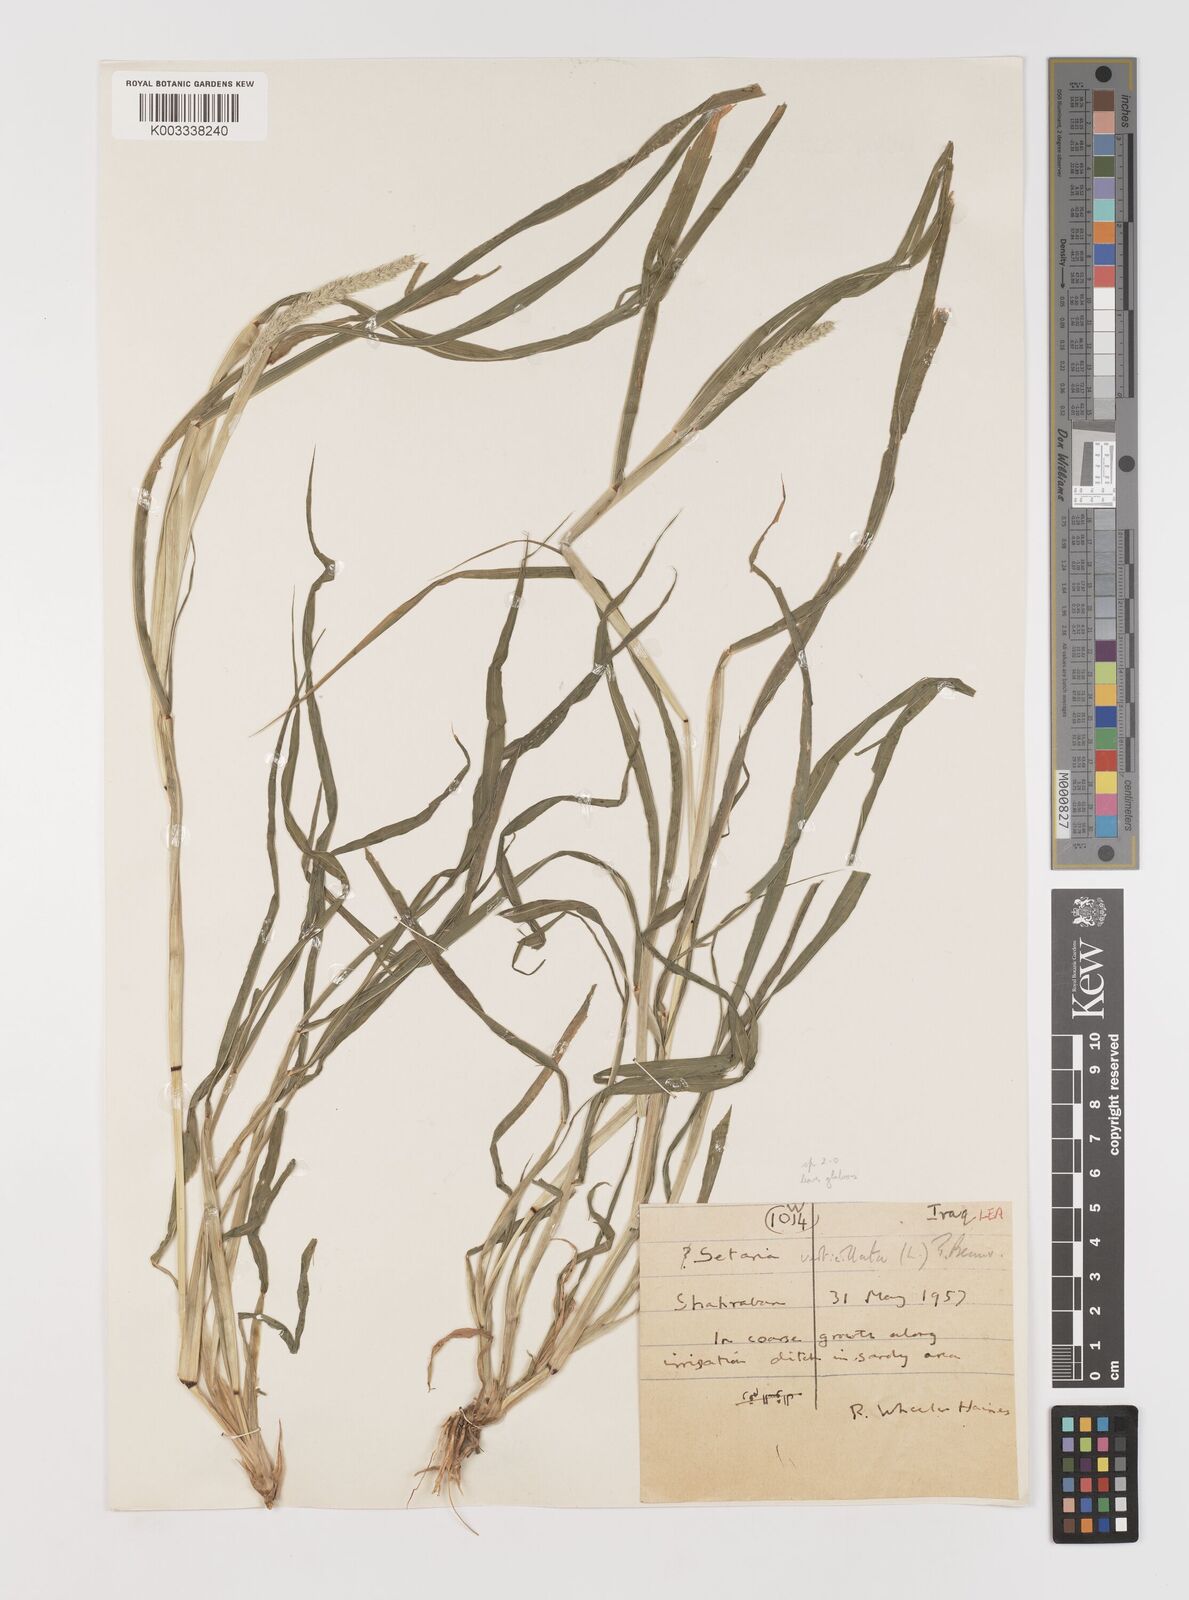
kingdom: Plantae
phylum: Tracheophyta
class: Liliopsida
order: Poales
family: Poaceae
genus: Setaria
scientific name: Setaria verticillata
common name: Hooked bristlegrass
